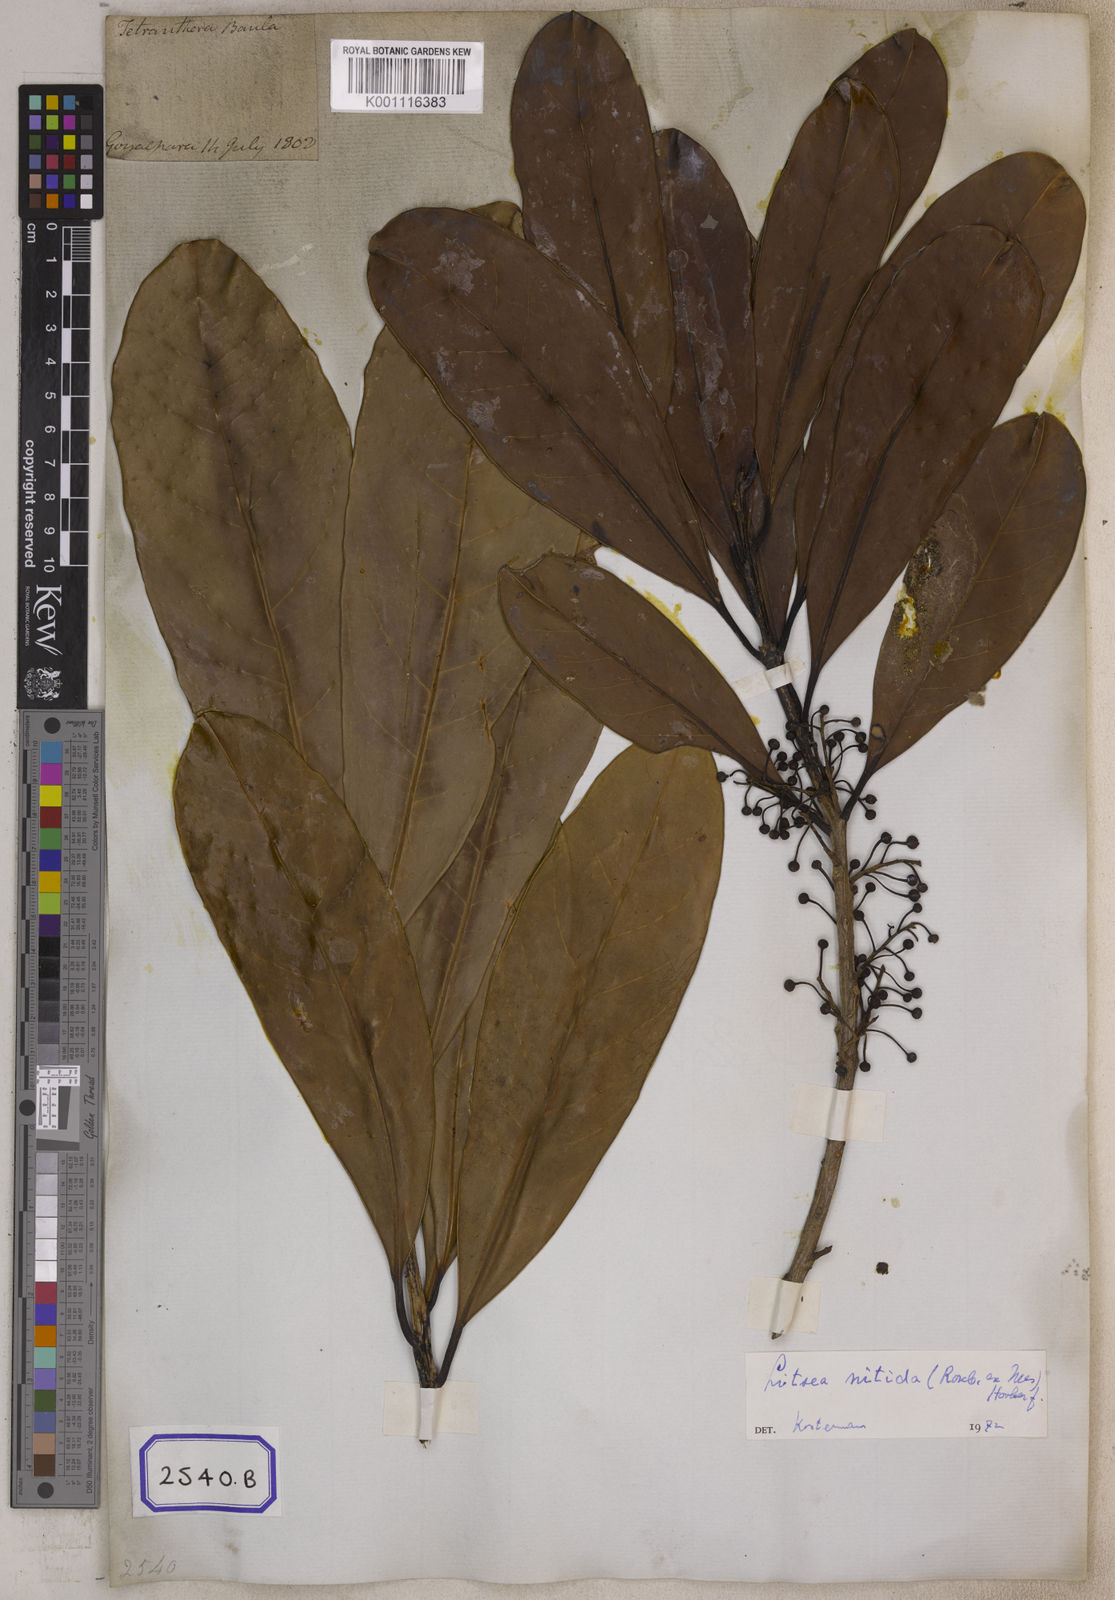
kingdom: Plantae
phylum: Tracheophyta
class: Magnoliopsida
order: Laurales
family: Lauraceae
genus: Litsea
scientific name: Litsea
